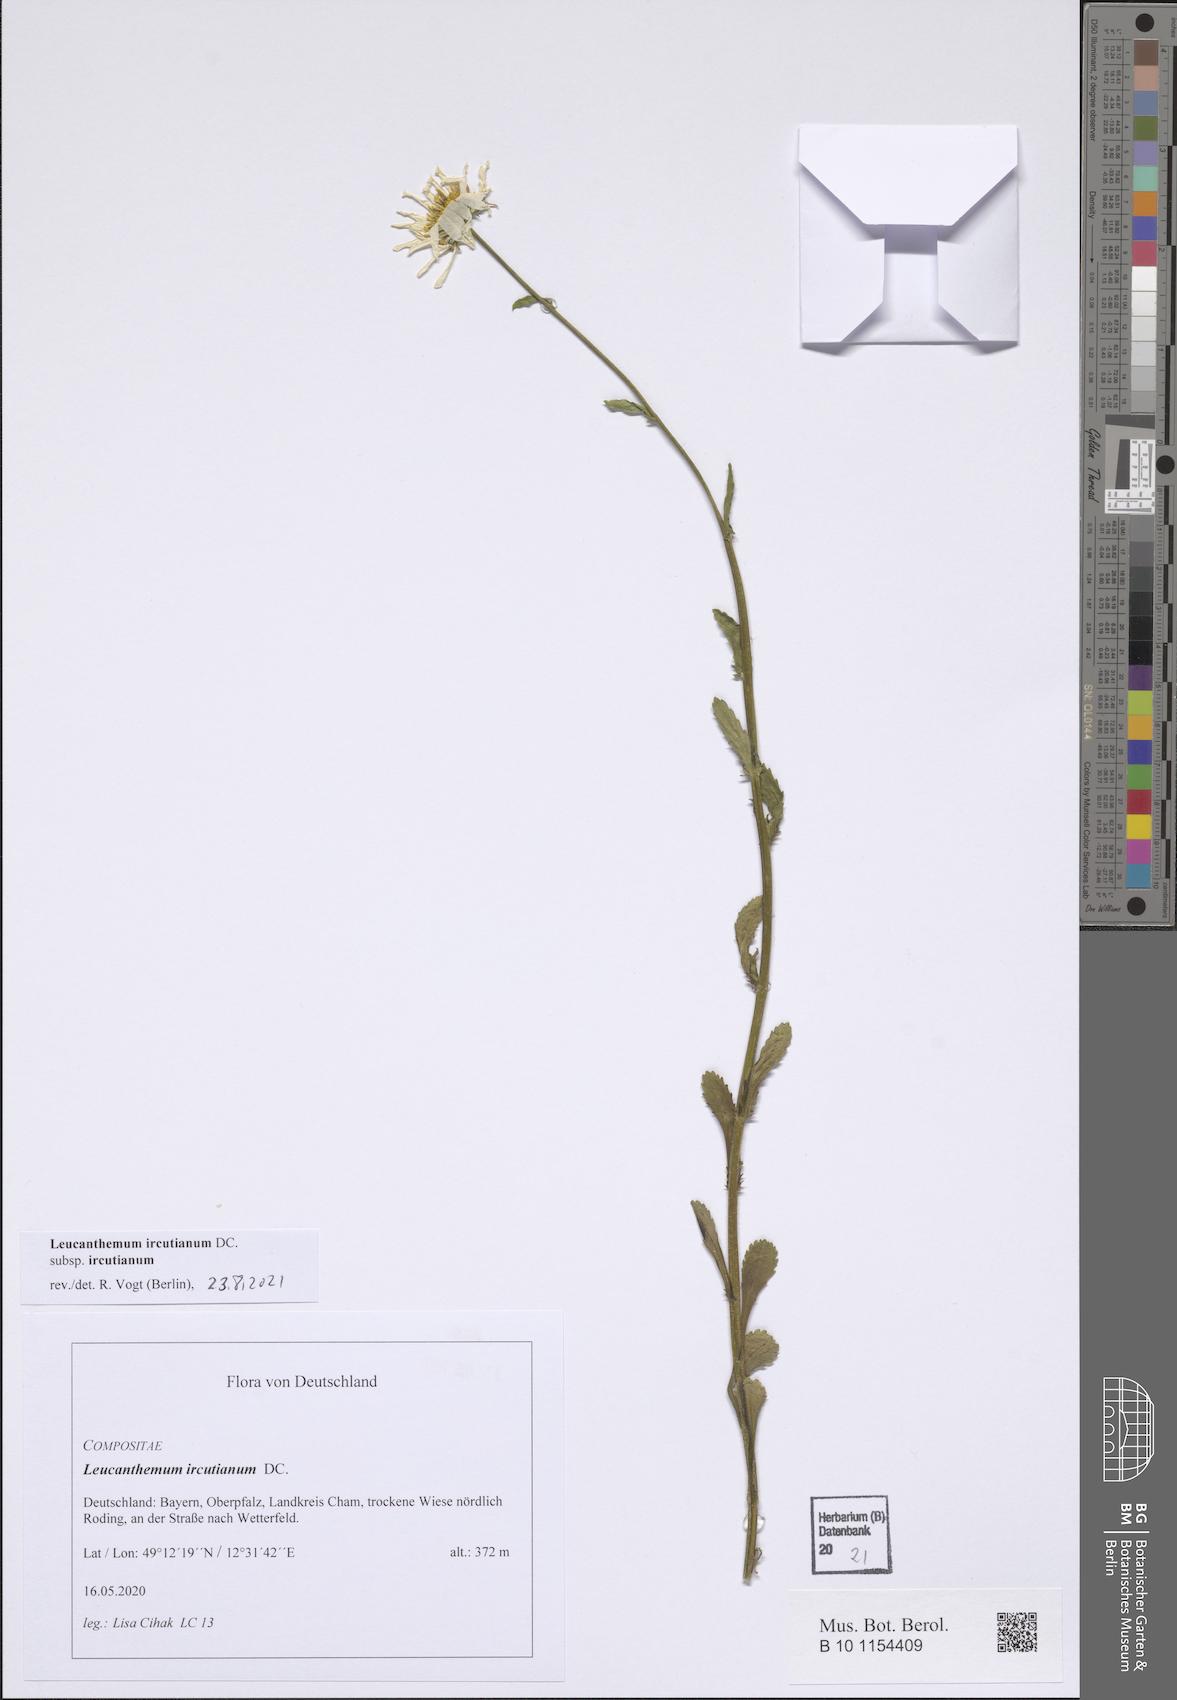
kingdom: Plantae
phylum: Tracheophyta
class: Magnoliopsida
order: Asterales
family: Asteraceae
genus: Leucanthemum
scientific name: Leucanthemum ircutianum
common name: Daisy
